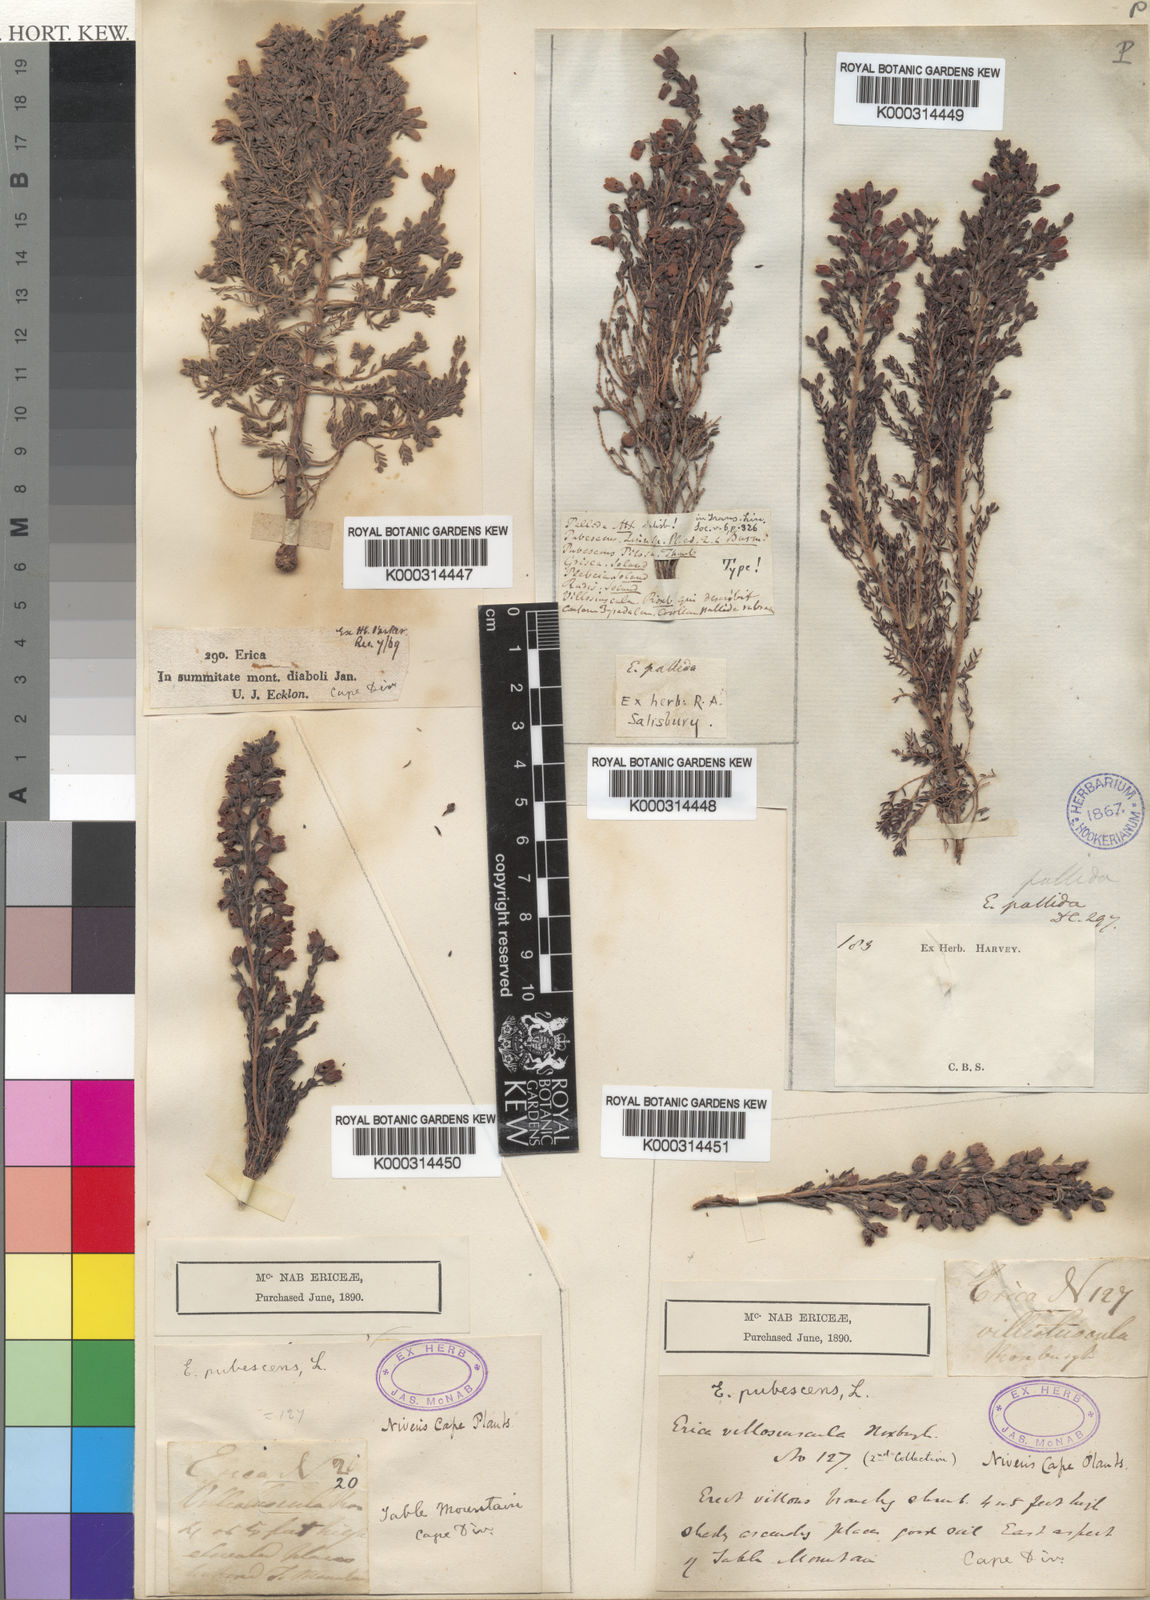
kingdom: Plantae
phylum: Tracheophyta
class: Magnoliopsida
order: Ericales
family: Ericaceae
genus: Erica
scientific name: Erica pubescens
